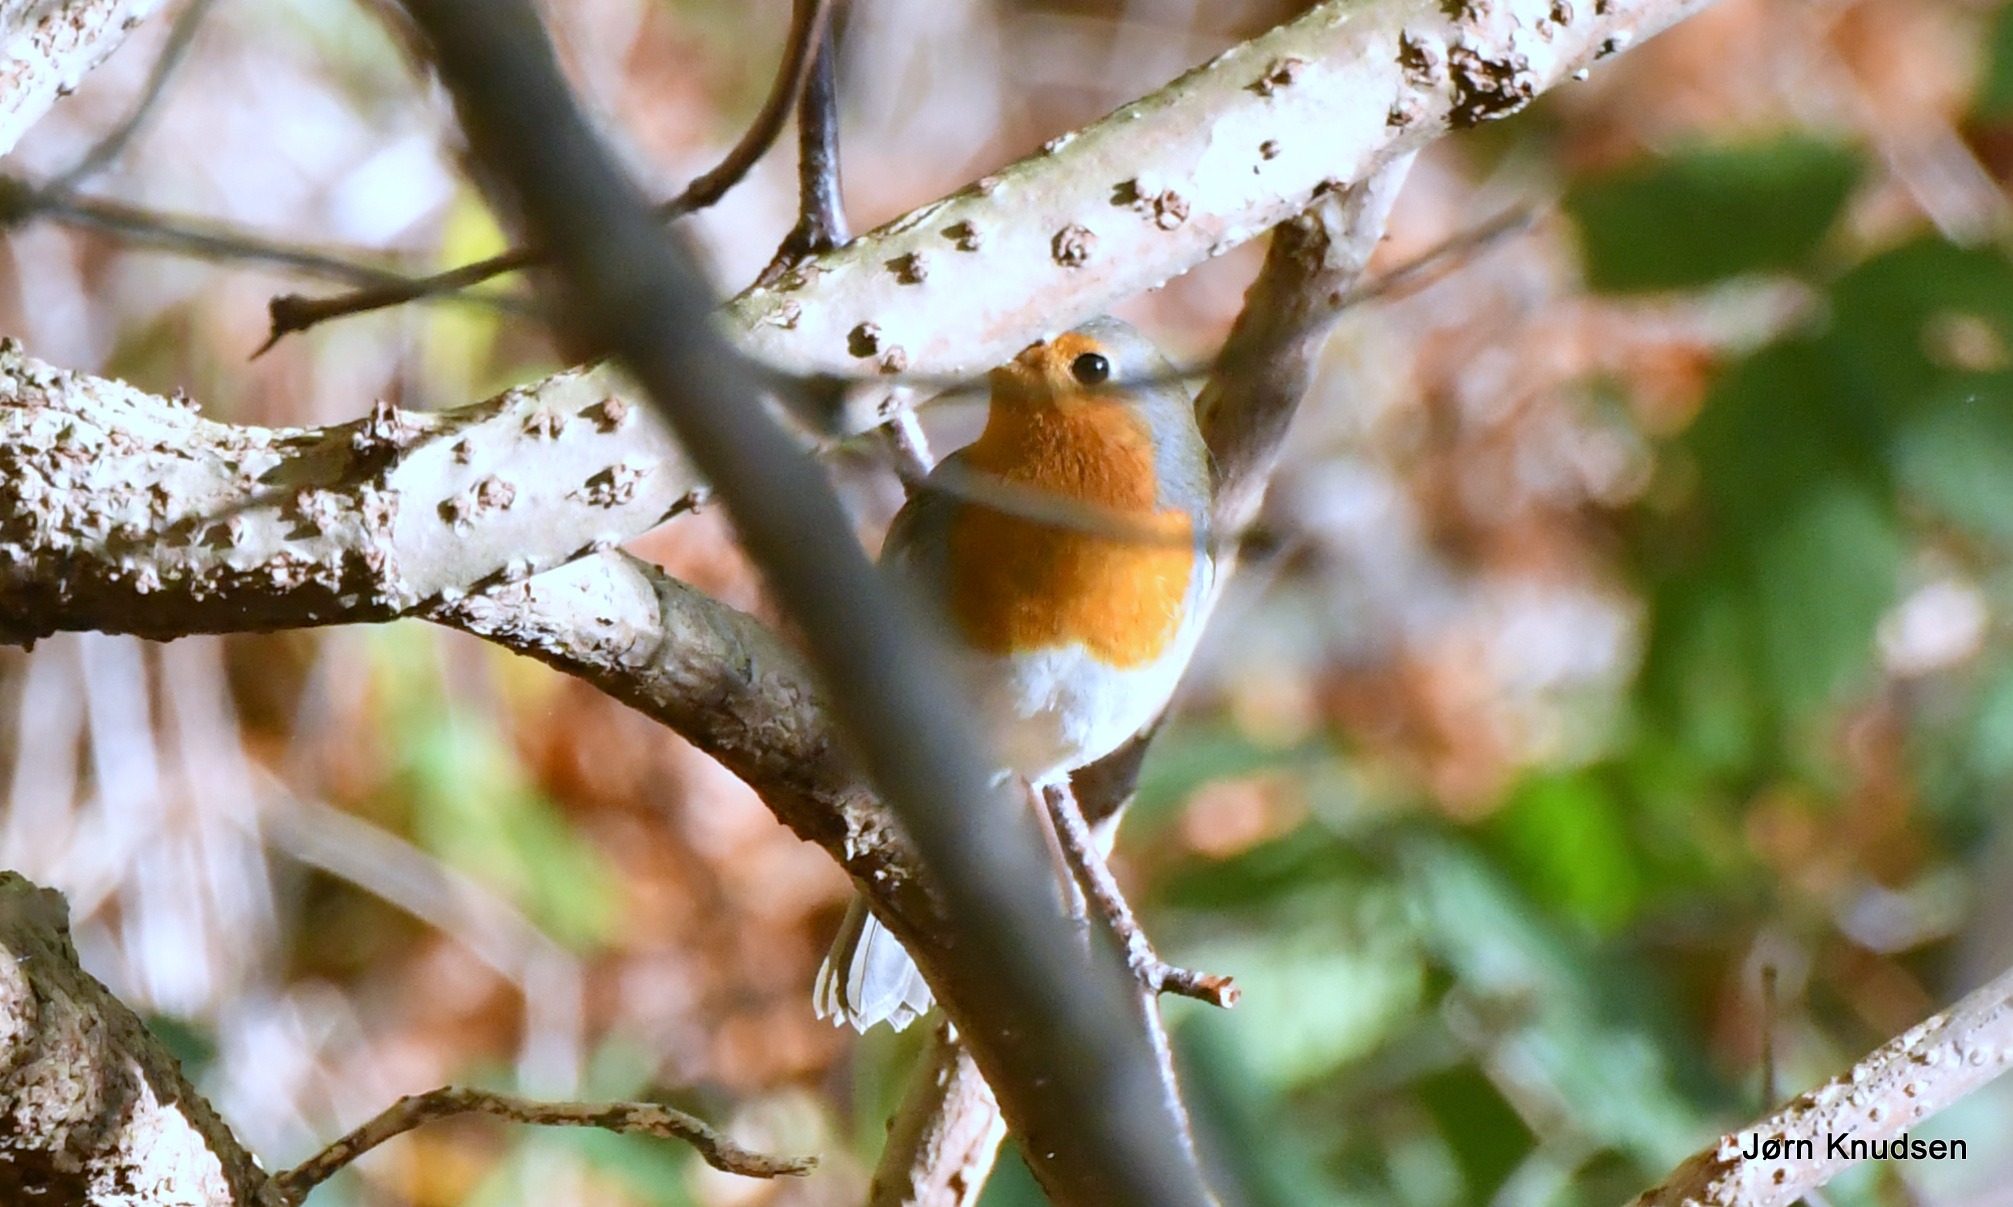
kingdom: Animalia
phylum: Chordata
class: Aves
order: Passeriformes
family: Muscicapidae
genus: Erithacus
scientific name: Erithacus rubecula
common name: Rødhals/rødkælk
